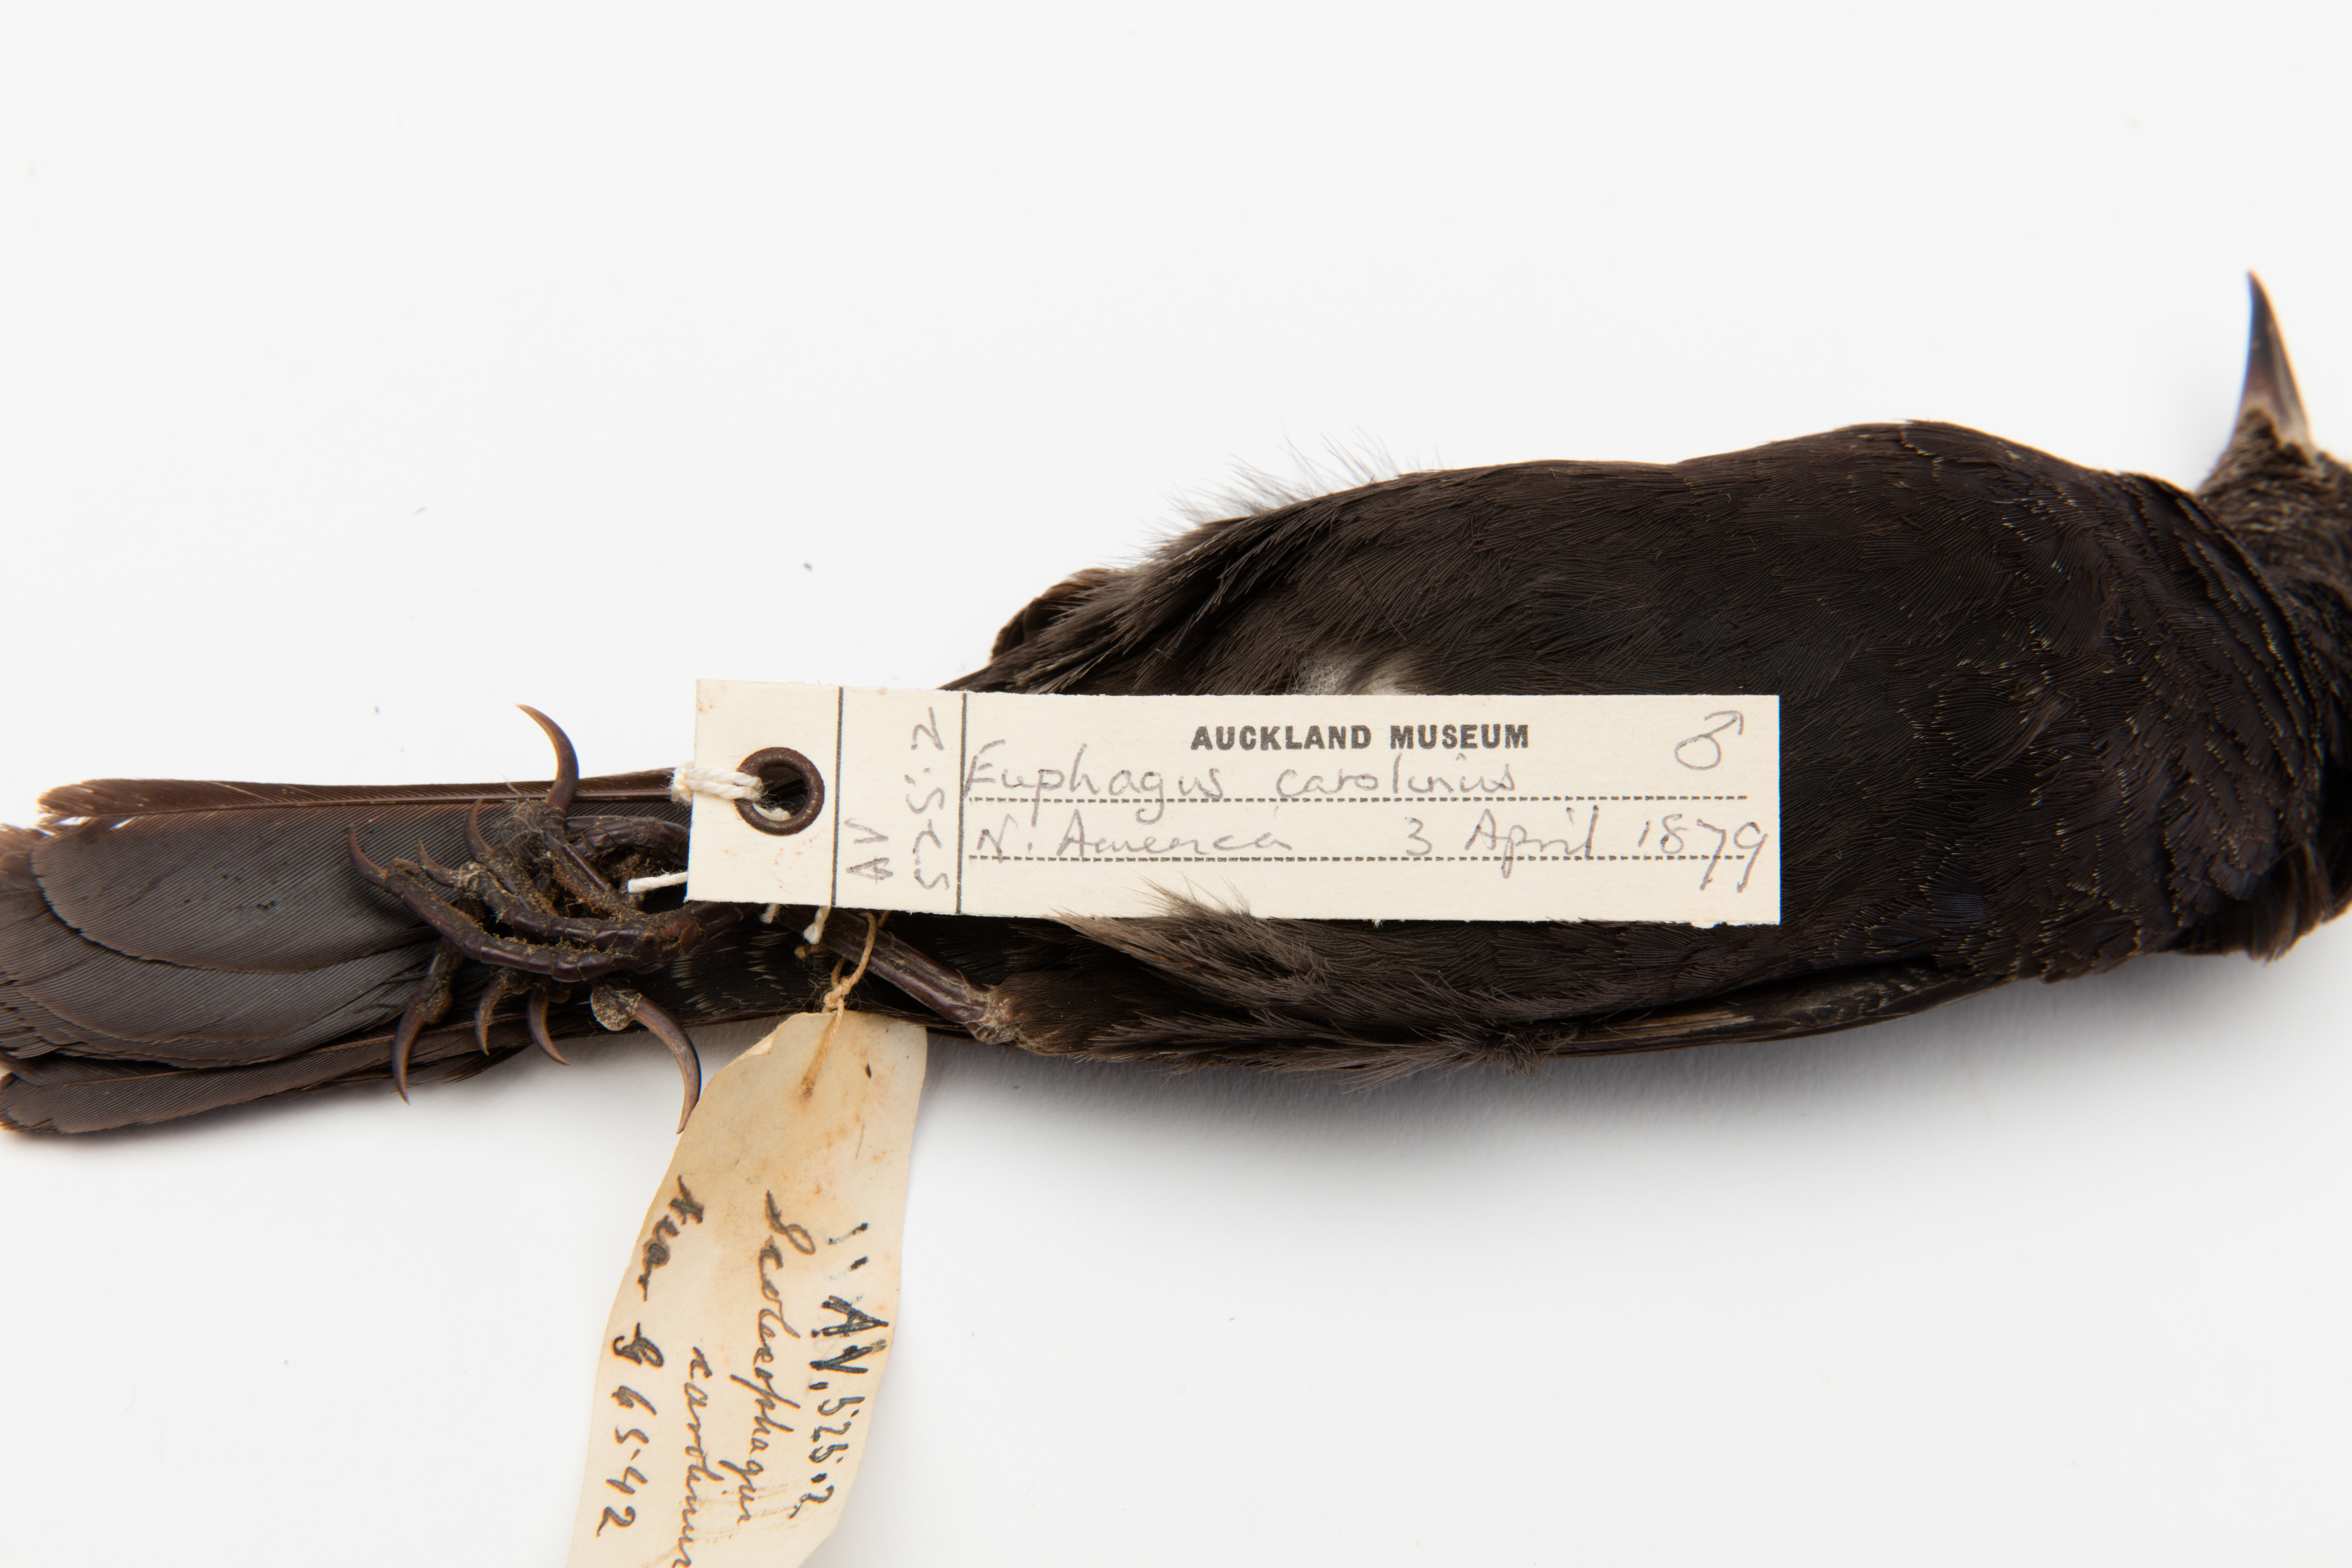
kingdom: Animalia
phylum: Chordata
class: Aves
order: Passeriformes
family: Icteridae
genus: Euphagus
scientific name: Euphagus carolinus
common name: Rusty blackbird
